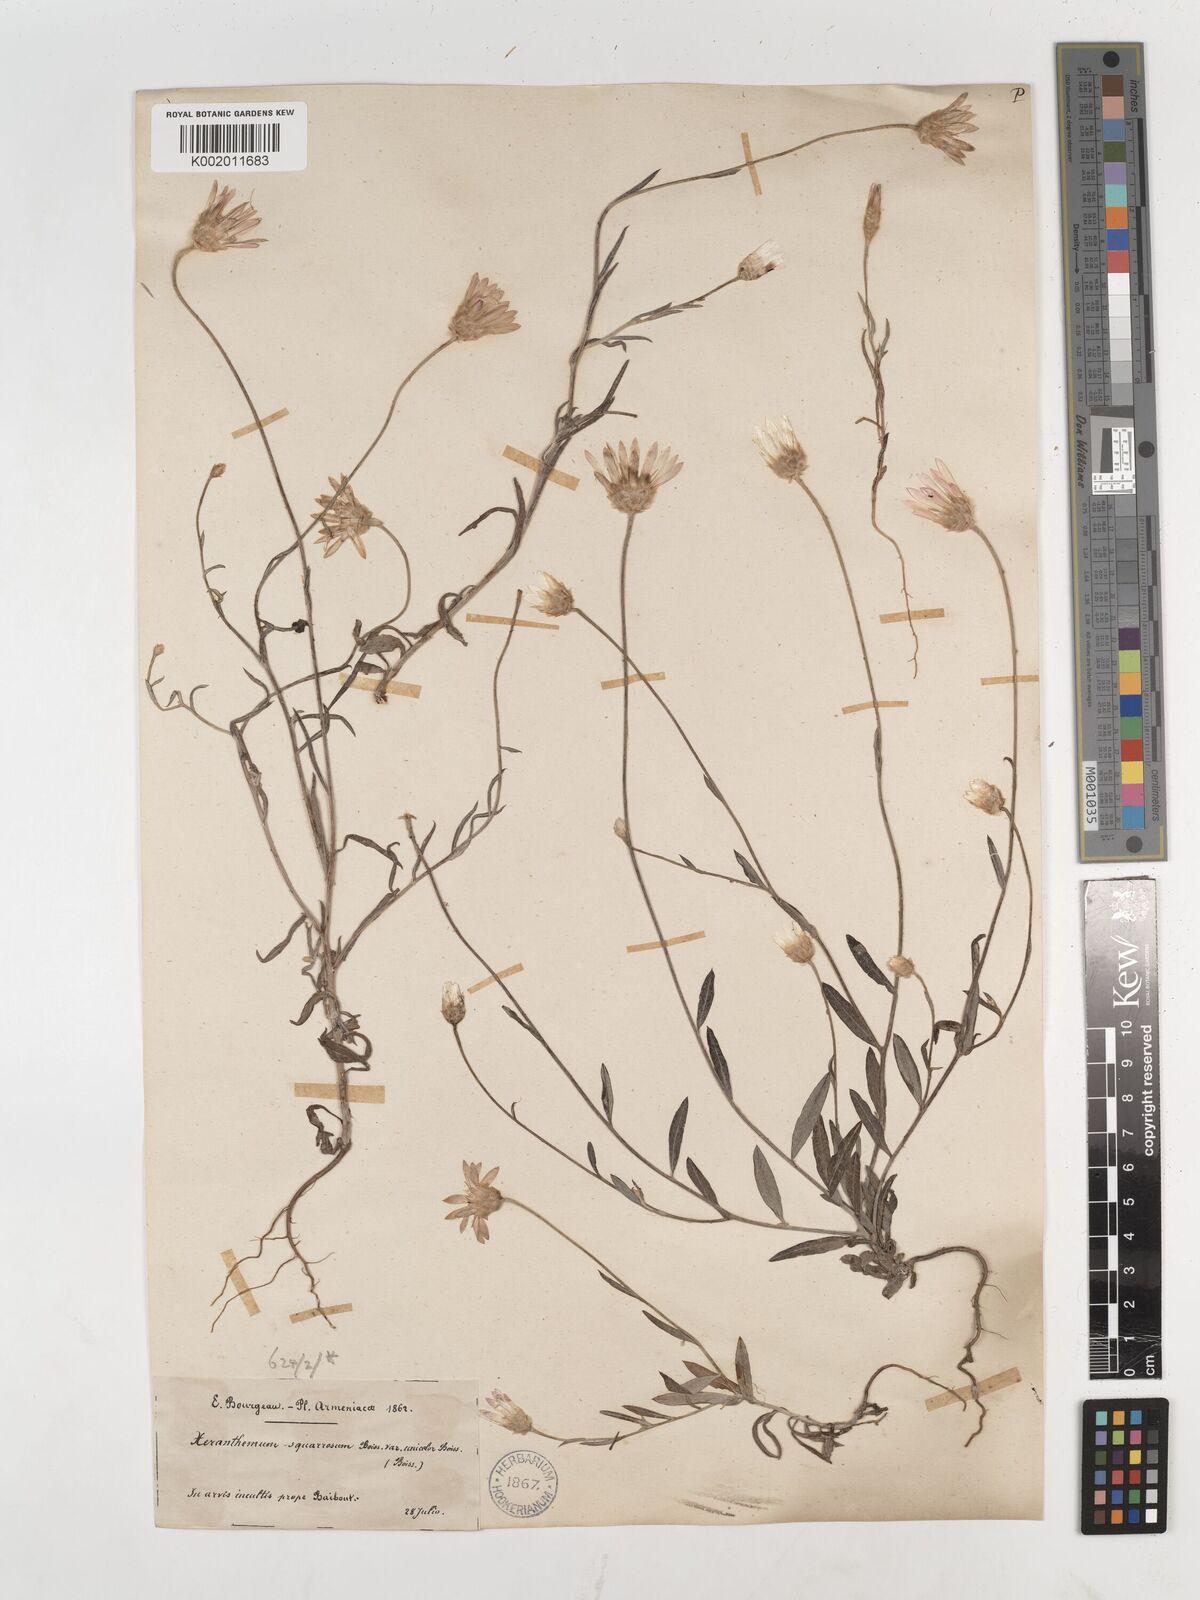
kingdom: Plantae
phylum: Tracheophyta
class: Magnoliopsida
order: Asterales
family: Asteraceae
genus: Xeranthemum
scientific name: Xeranthemum squarrosum
